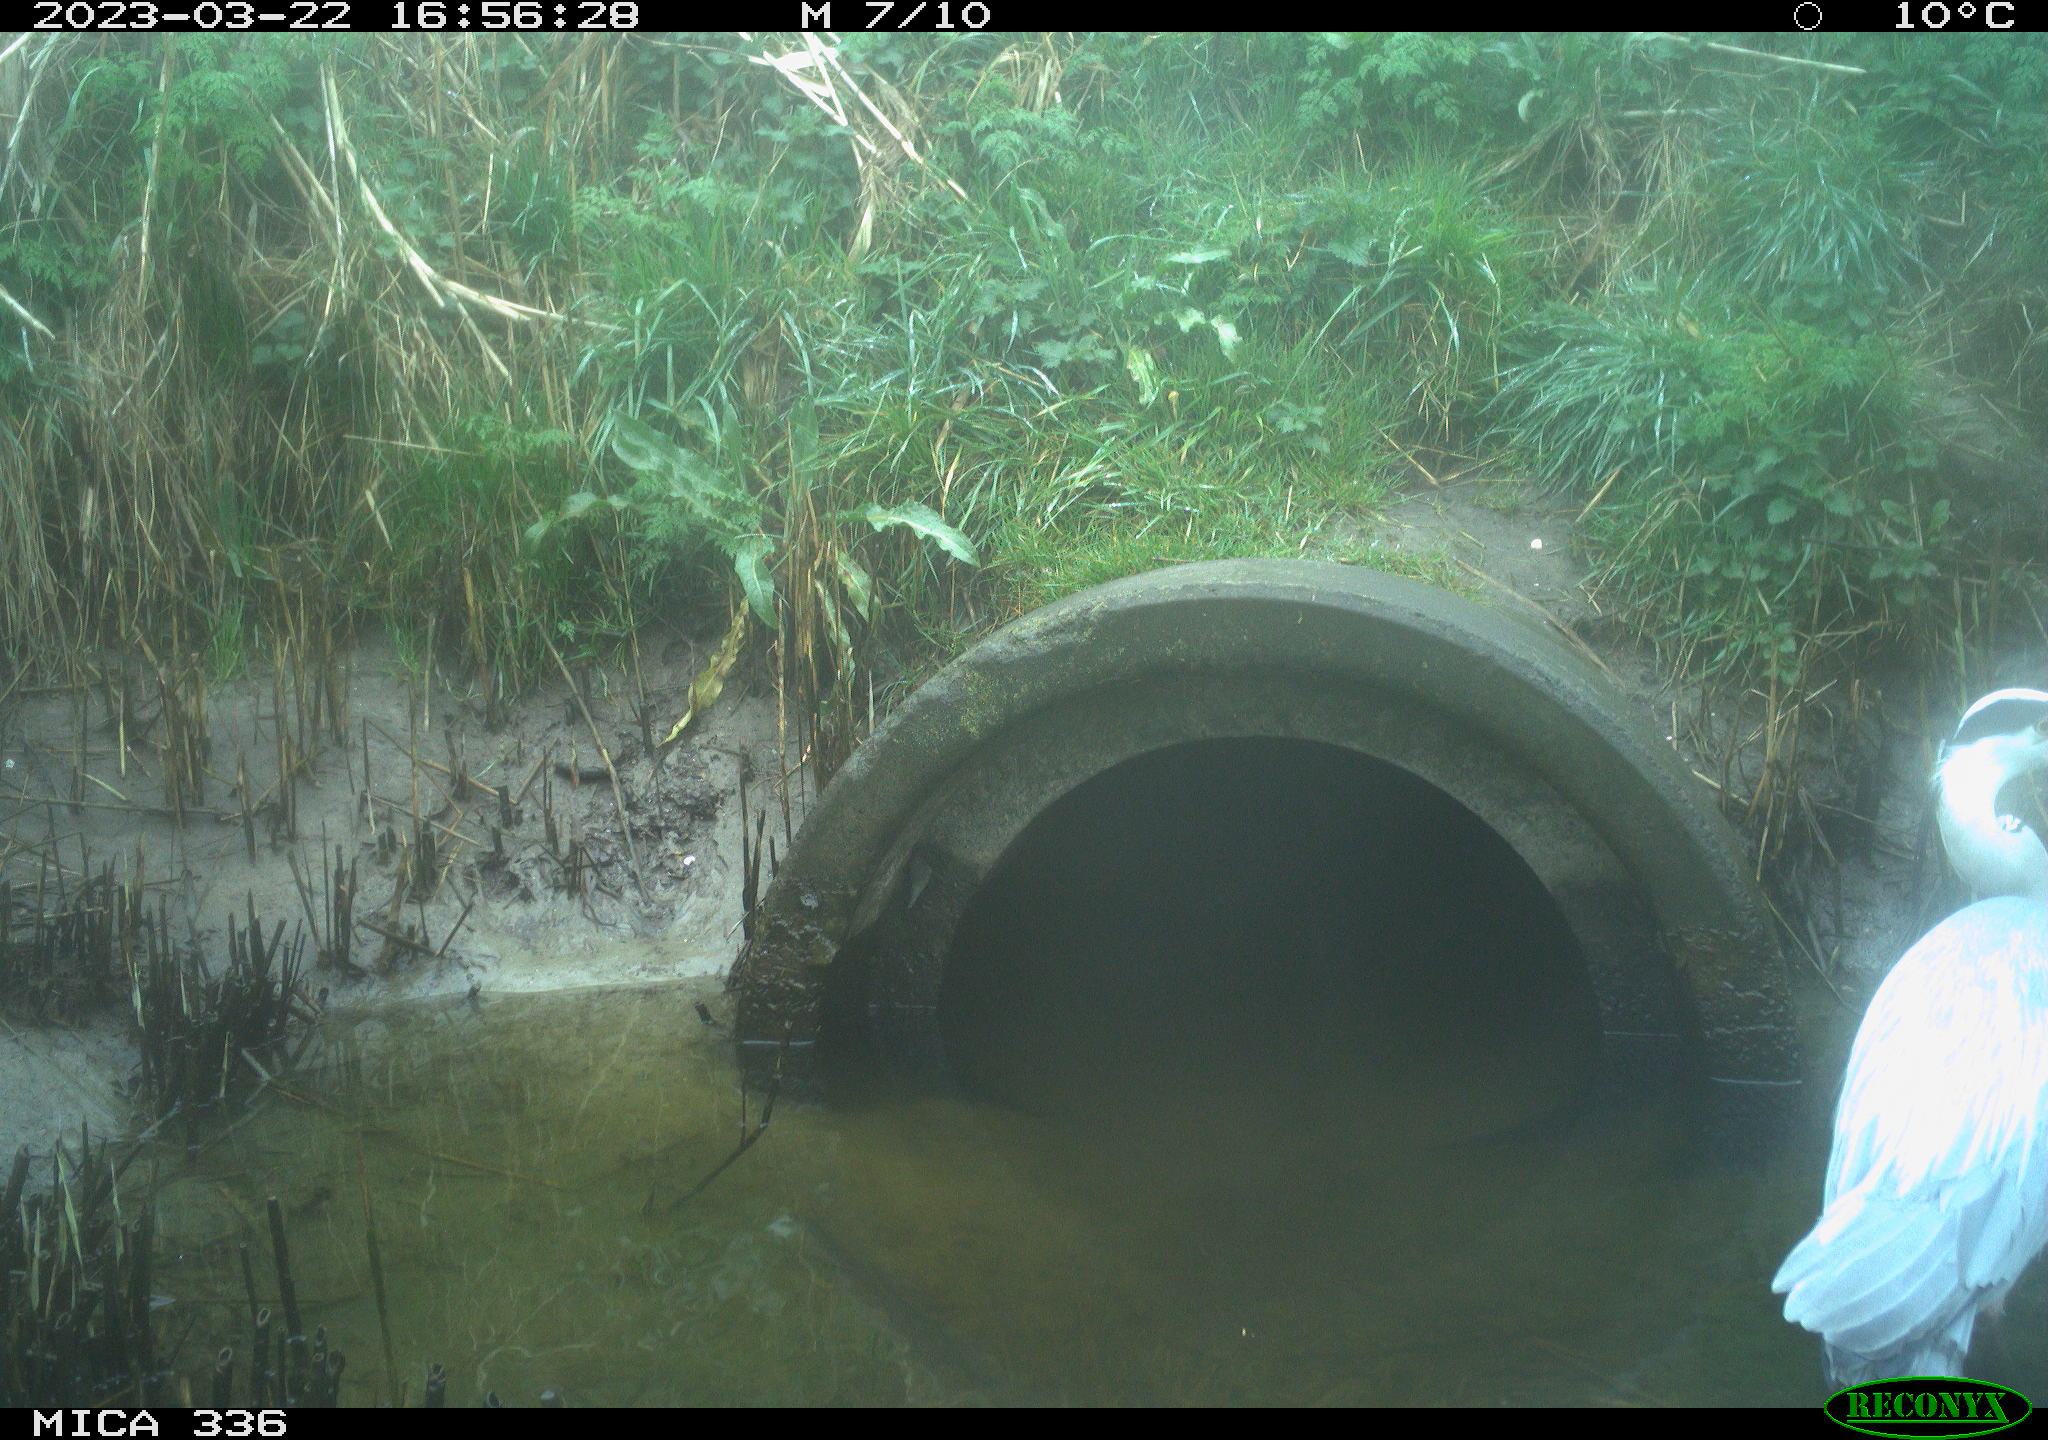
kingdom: Animalia
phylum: Chordata
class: Aves
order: Pelecaniformes
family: Ardeidae
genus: Ardea
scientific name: Ardea cinerea
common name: Grey heron
